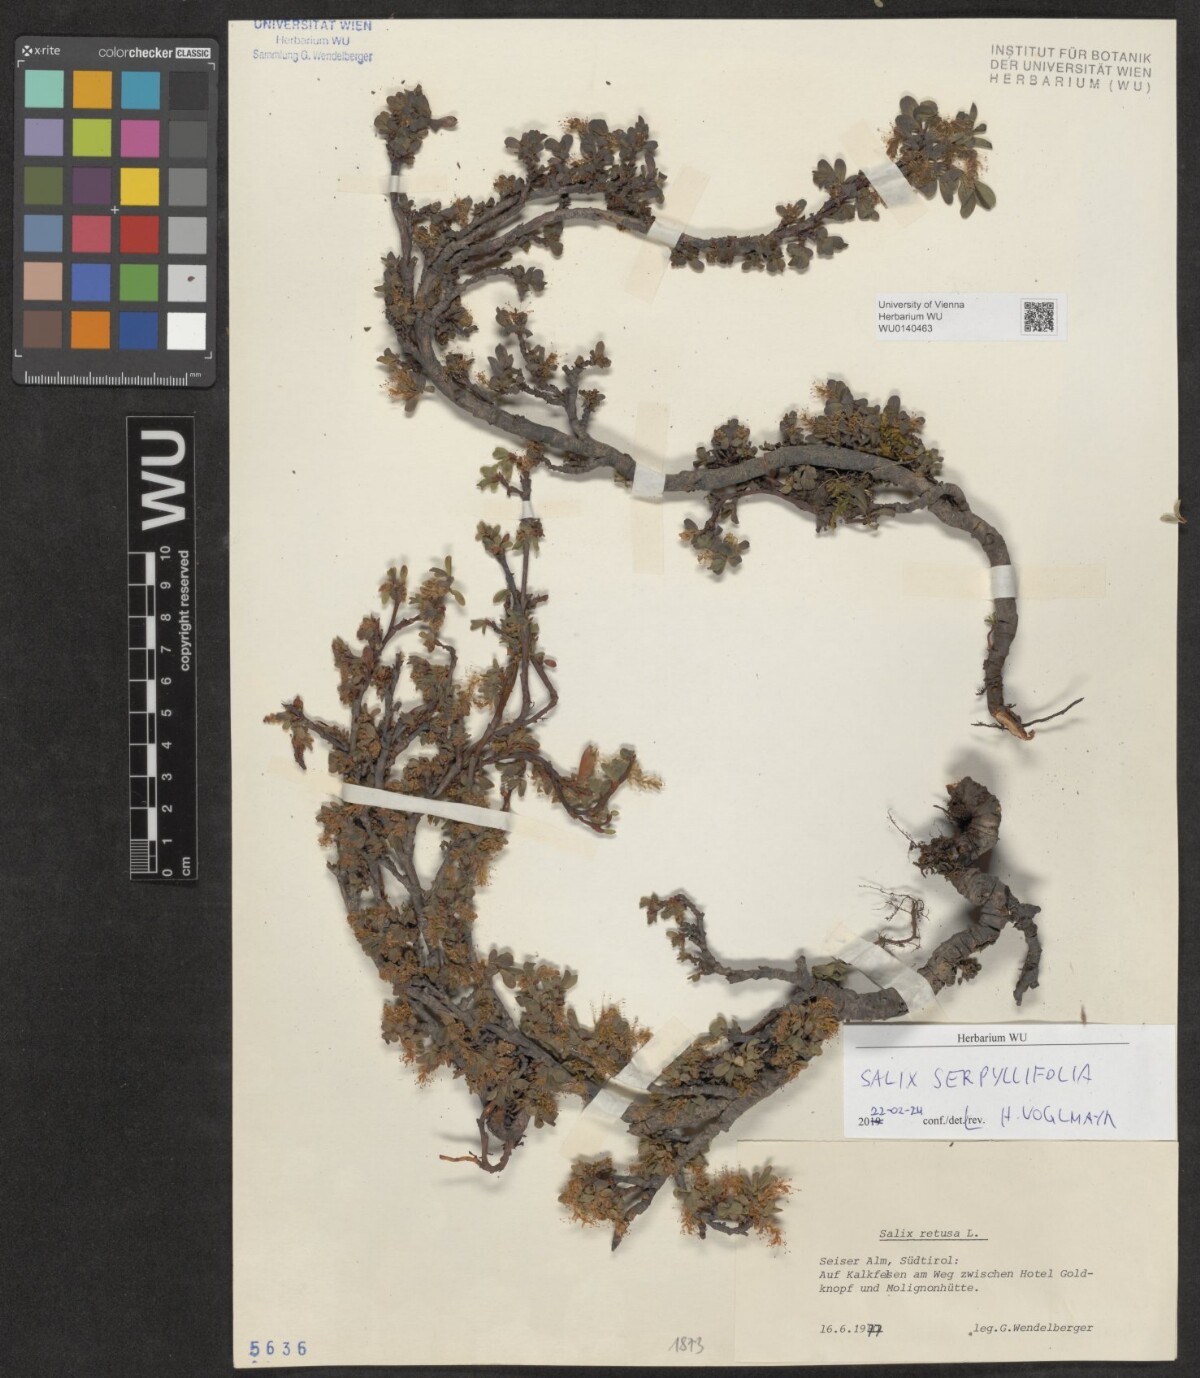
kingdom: Plantae
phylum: Tracheophyta
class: Magnoliopsida
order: Malpighiales
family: Salicaceae
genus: Salix
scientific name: Salix serpillifolia
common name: Thyme-leaf willow
